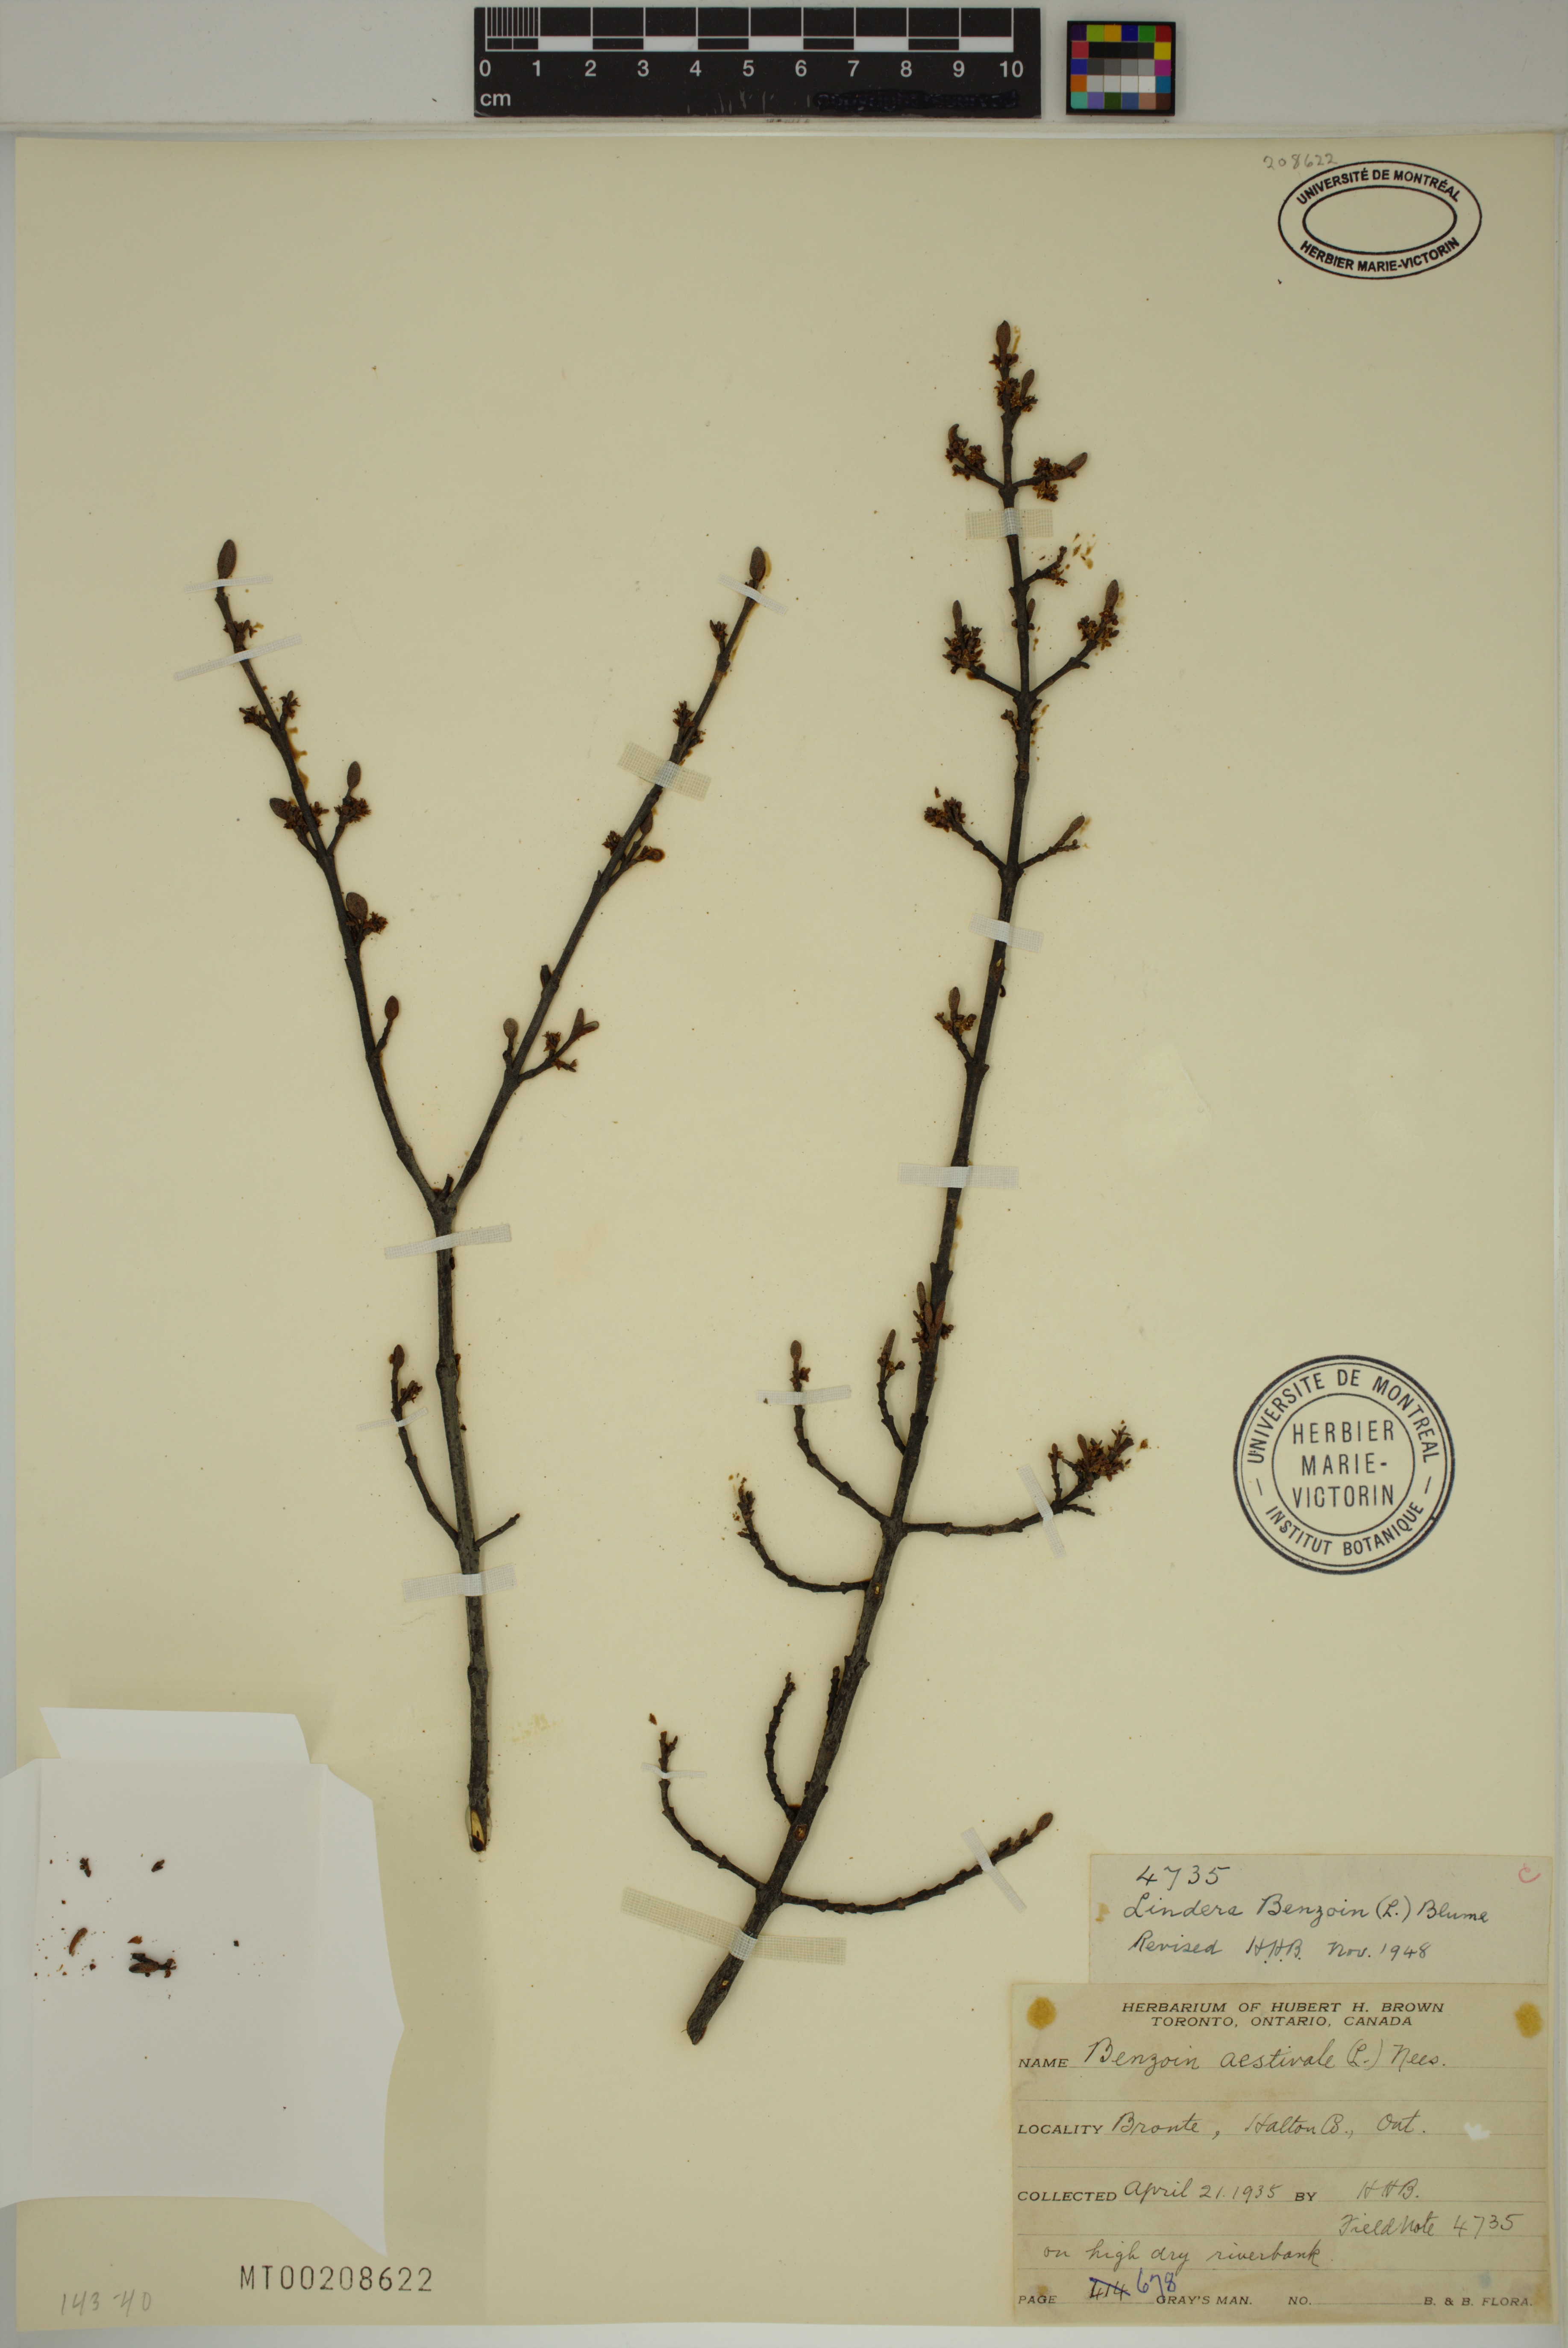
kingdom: Plantae
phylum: Tracheophyta
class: Magnoliopsida
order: Laurales
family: Lauraceae
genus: Lindera
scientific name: Lindera benzoin
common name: Spicebush
